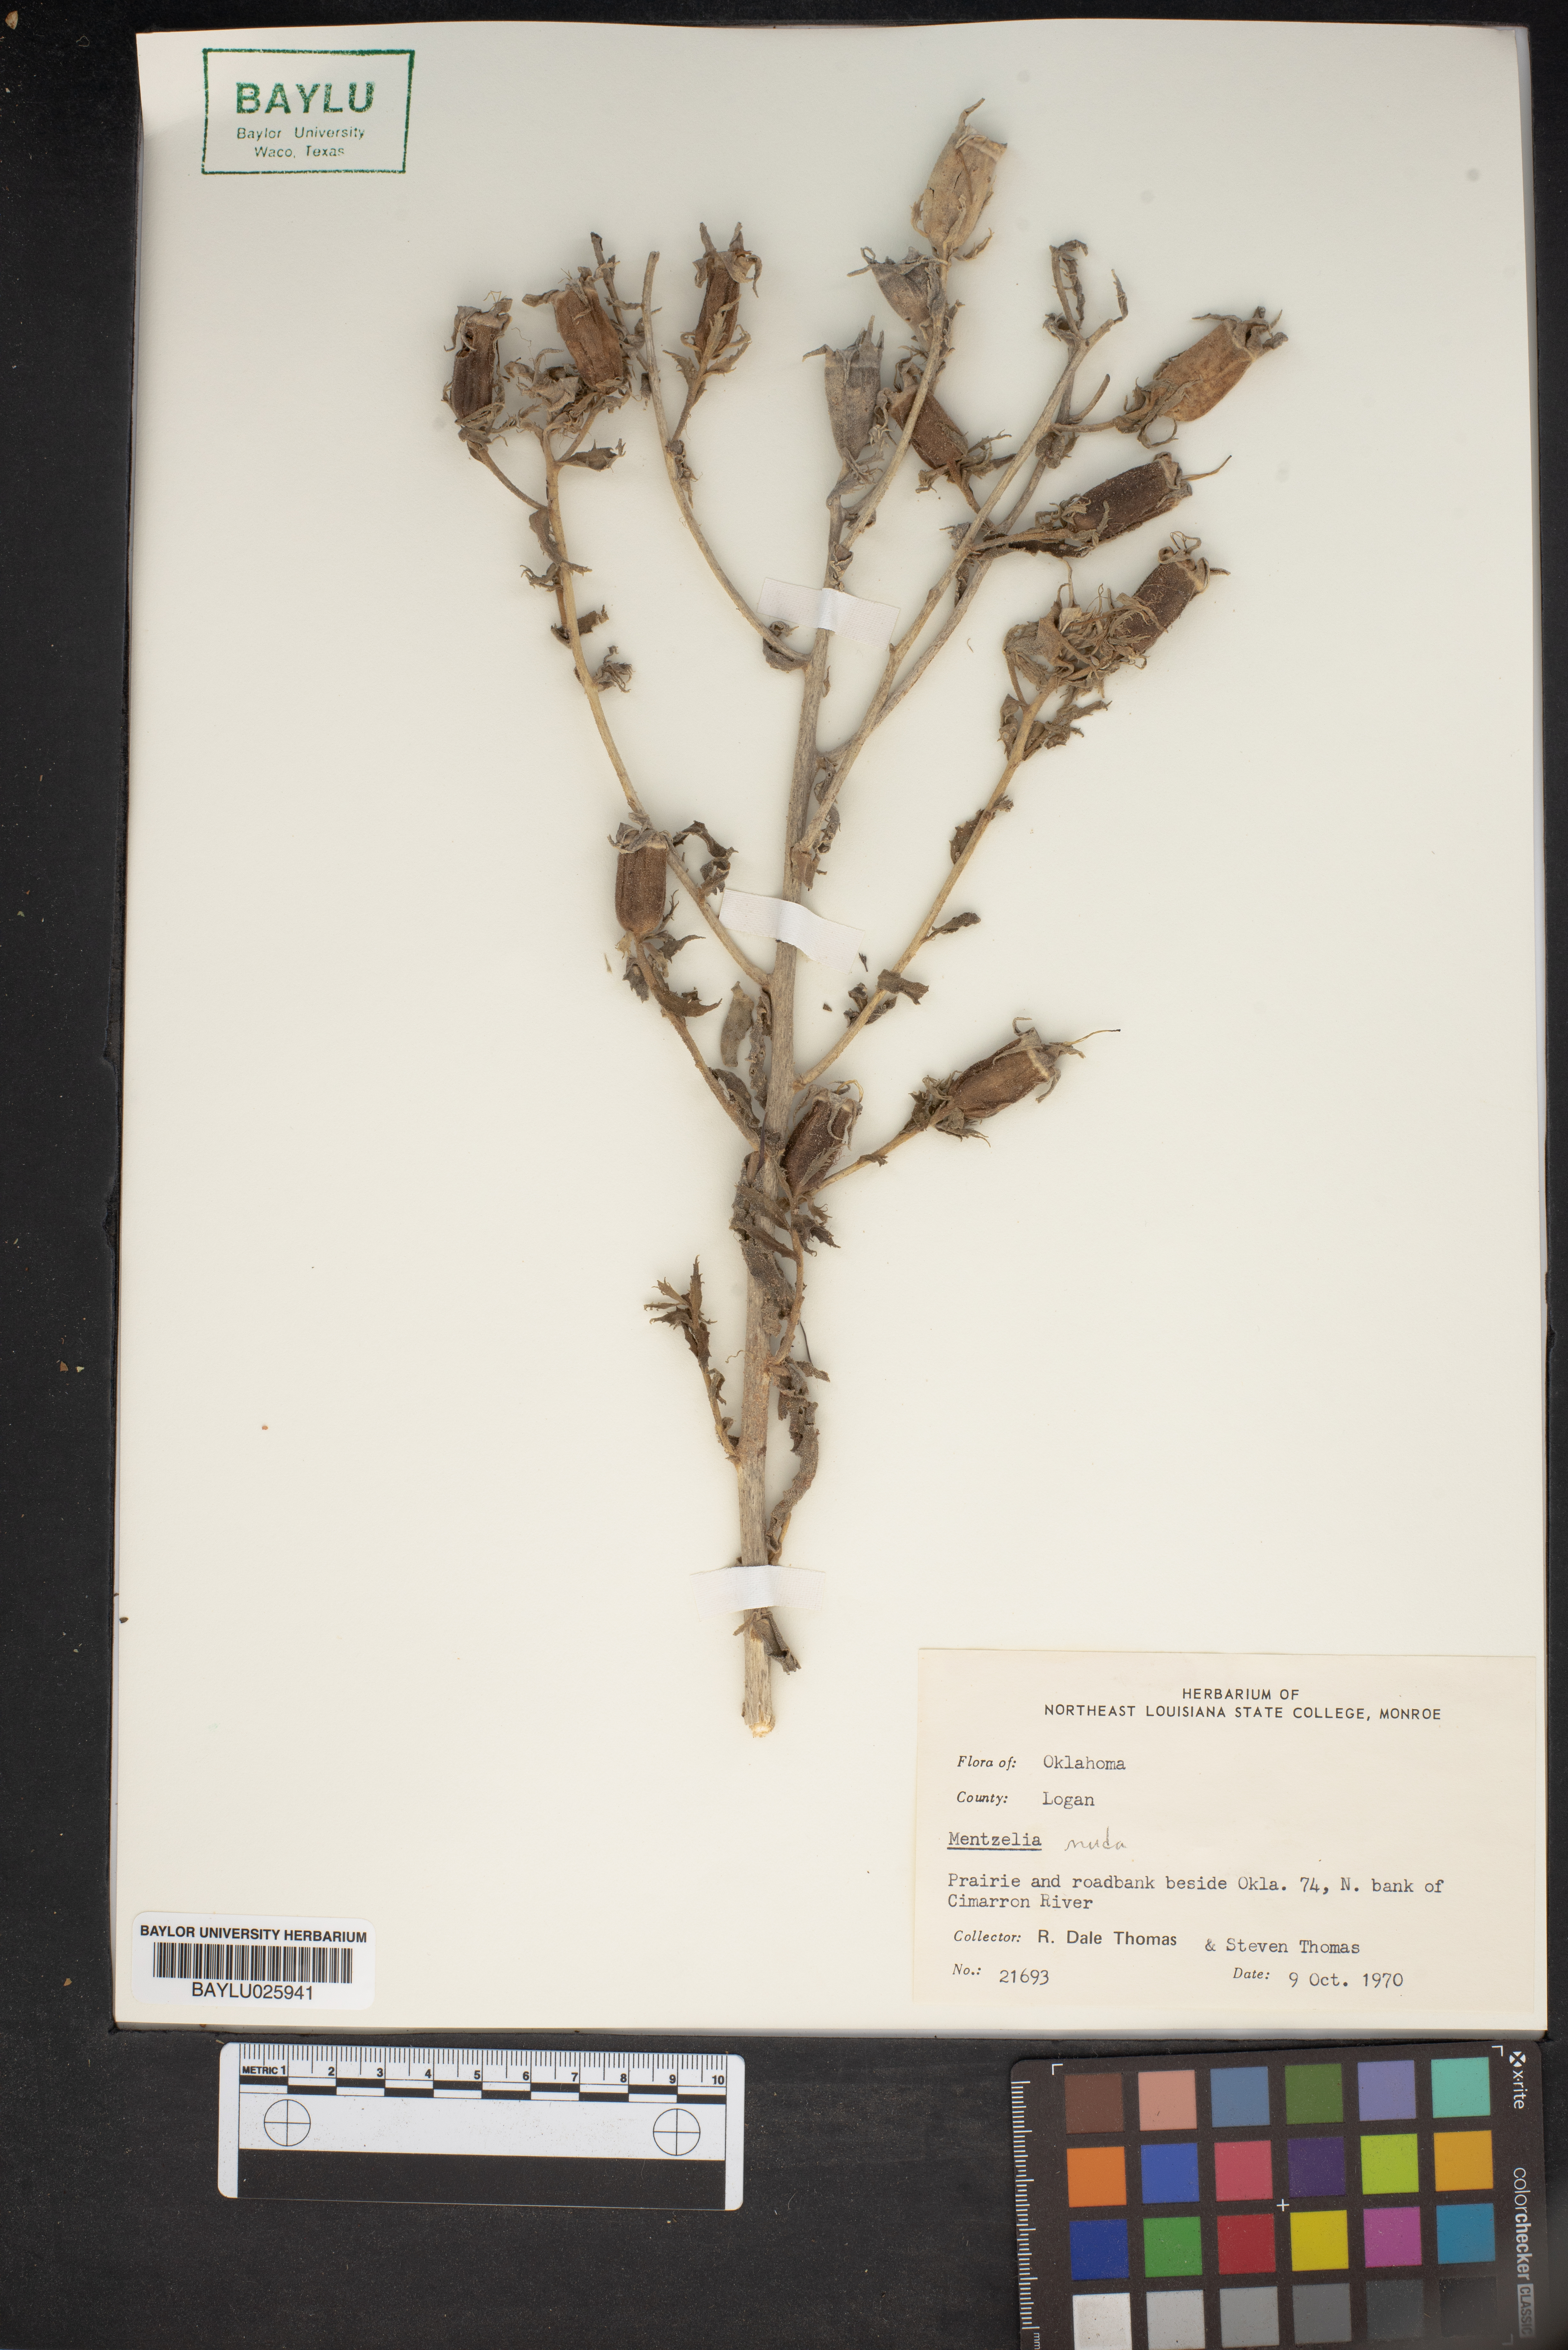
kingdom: Plantae
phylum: Tracheophyta
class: Magnoliopsida
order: Cornales
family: Loasaceae
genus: Mentzelia
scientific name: Mentzelia nuda
